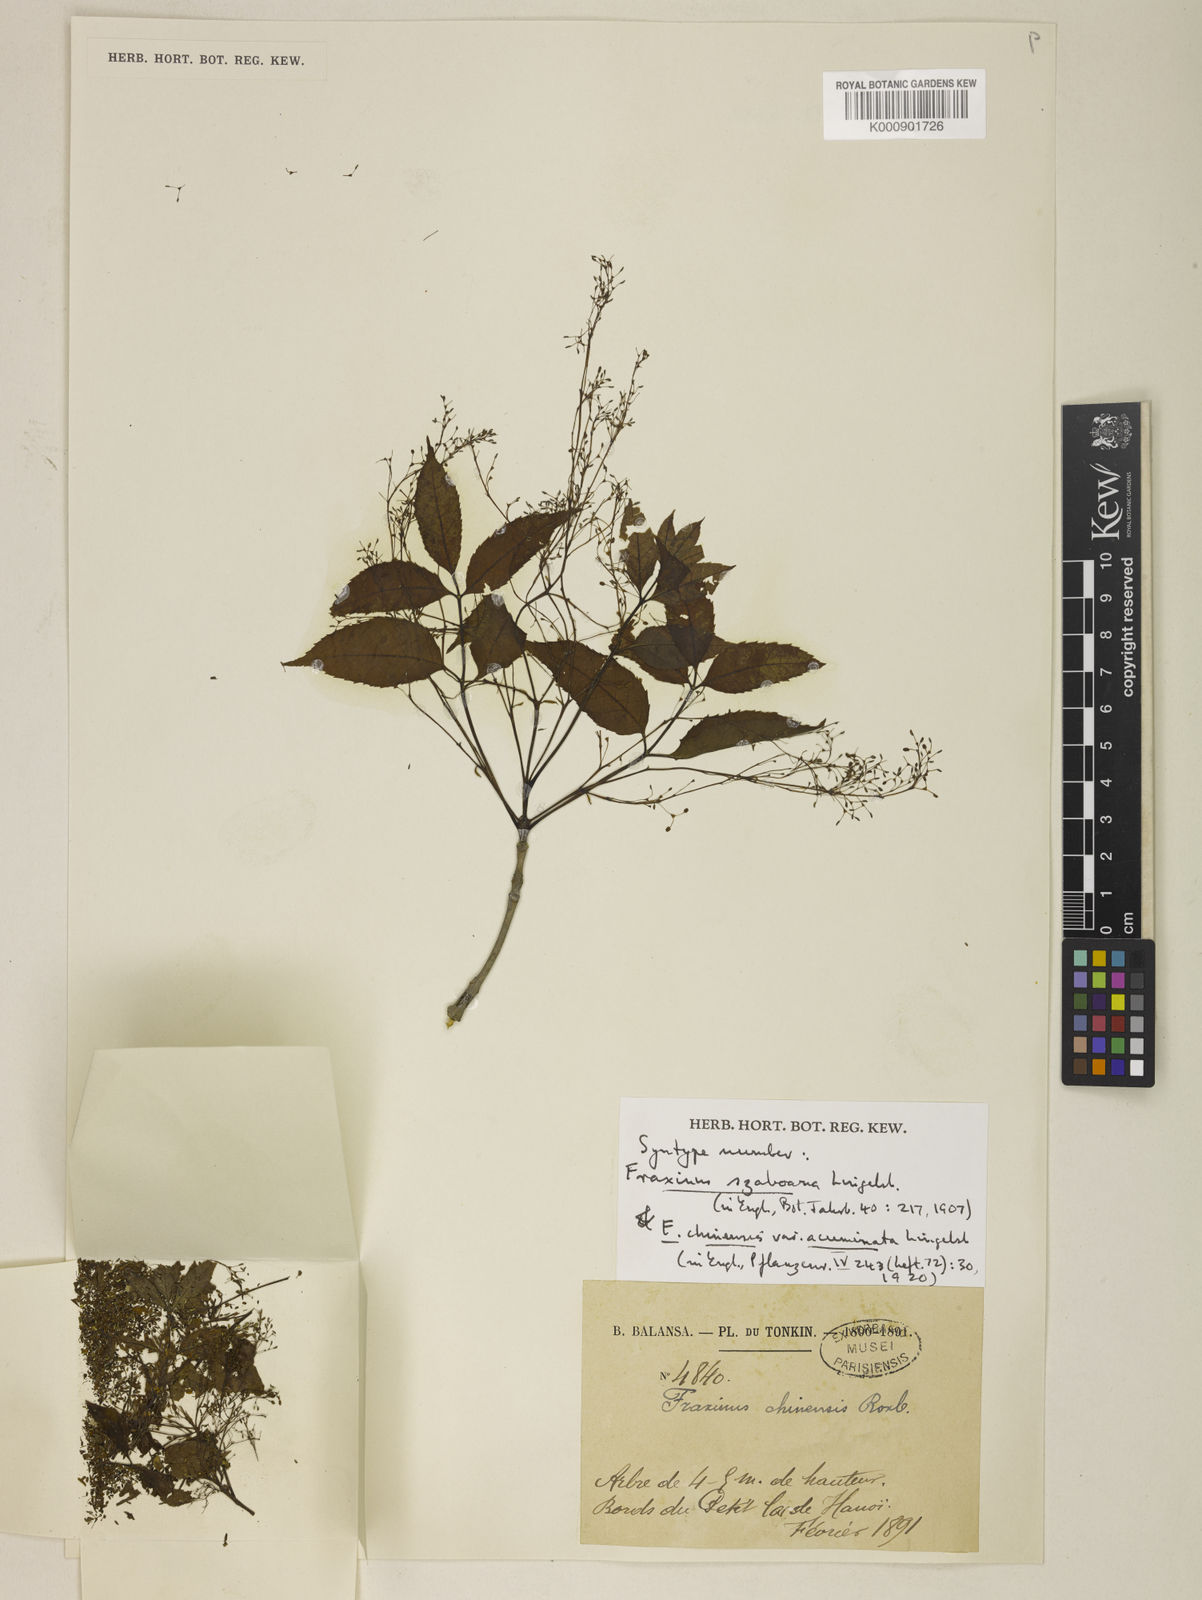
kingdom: Plantae
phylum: Tracheophyta
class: Magnoliopsida
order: Lamiales
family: Oleaceae
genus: Fraxinus
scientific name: Fraxinus chinensis
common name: Chinese ash
